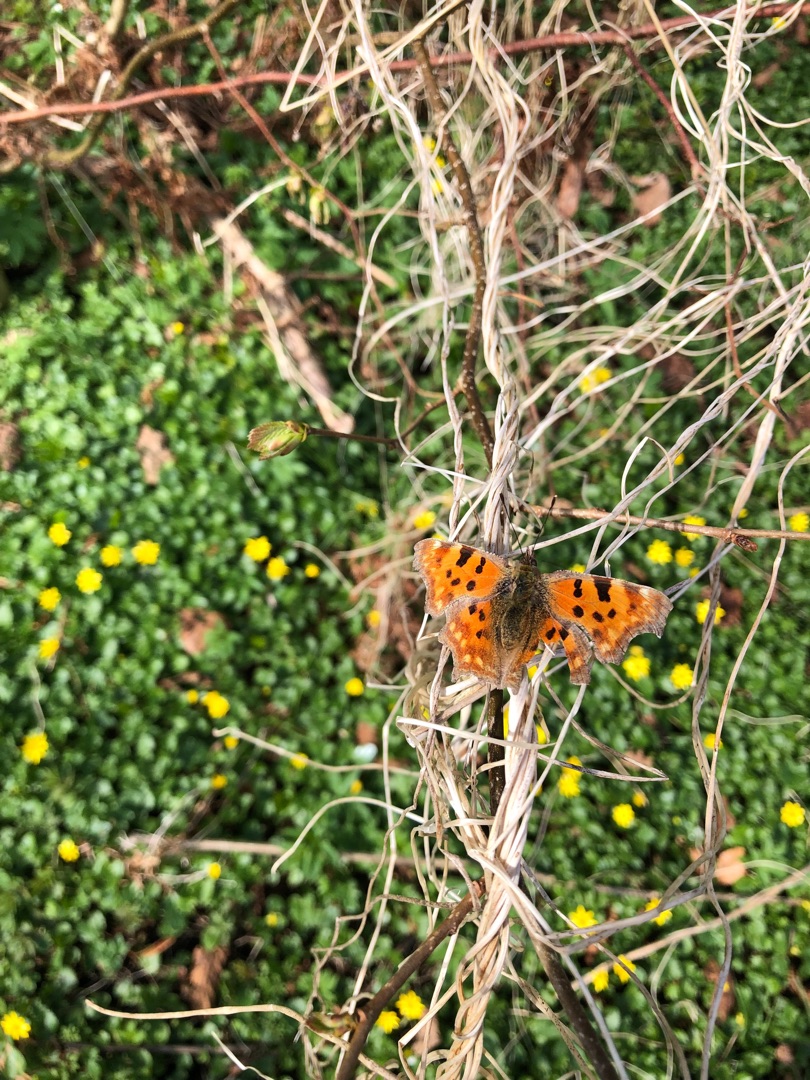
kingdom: Animalia
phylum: Arthropoda
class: Insecta
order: Lepidoptera
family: Nymphalidae
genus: Polygonia
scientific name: Polygonia c-album
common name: Det hvide C
